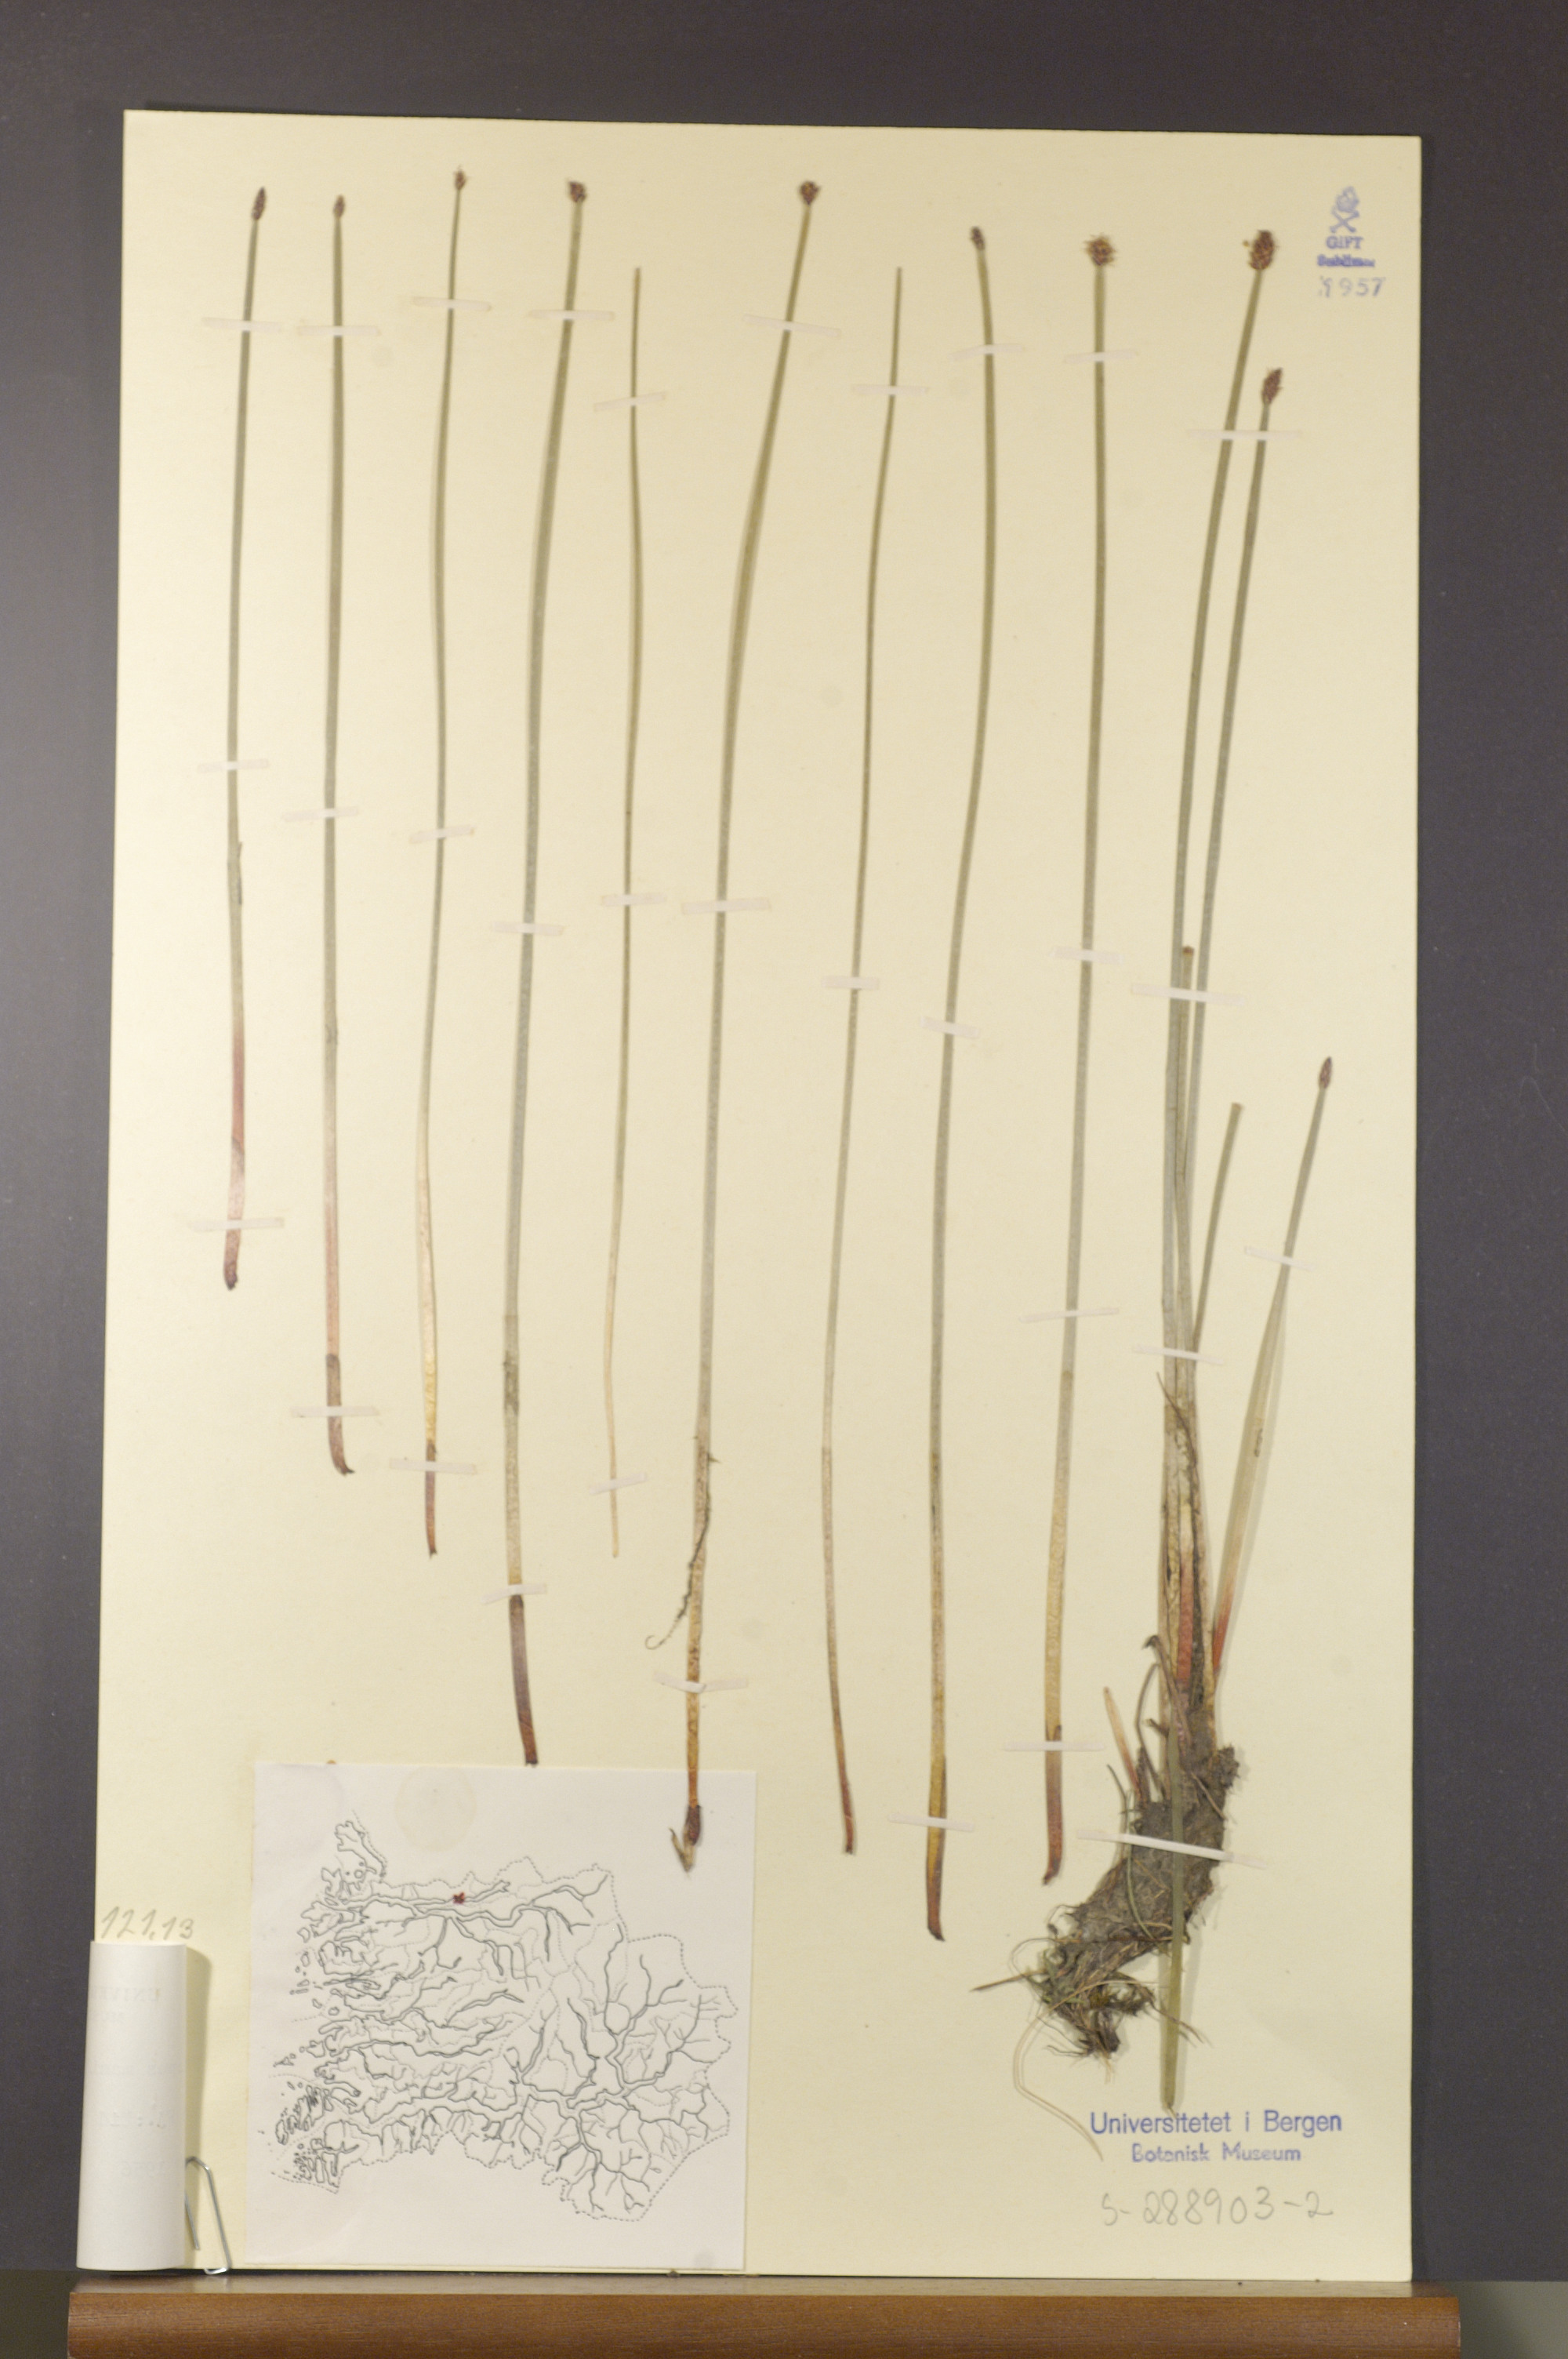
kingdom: Plantae
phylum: Tracheophyta
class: Liliopsida
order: Poales
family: Cyperaceae
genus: Eleocharis
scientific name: Eleocharis mamillata
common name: Northern spike-rush
